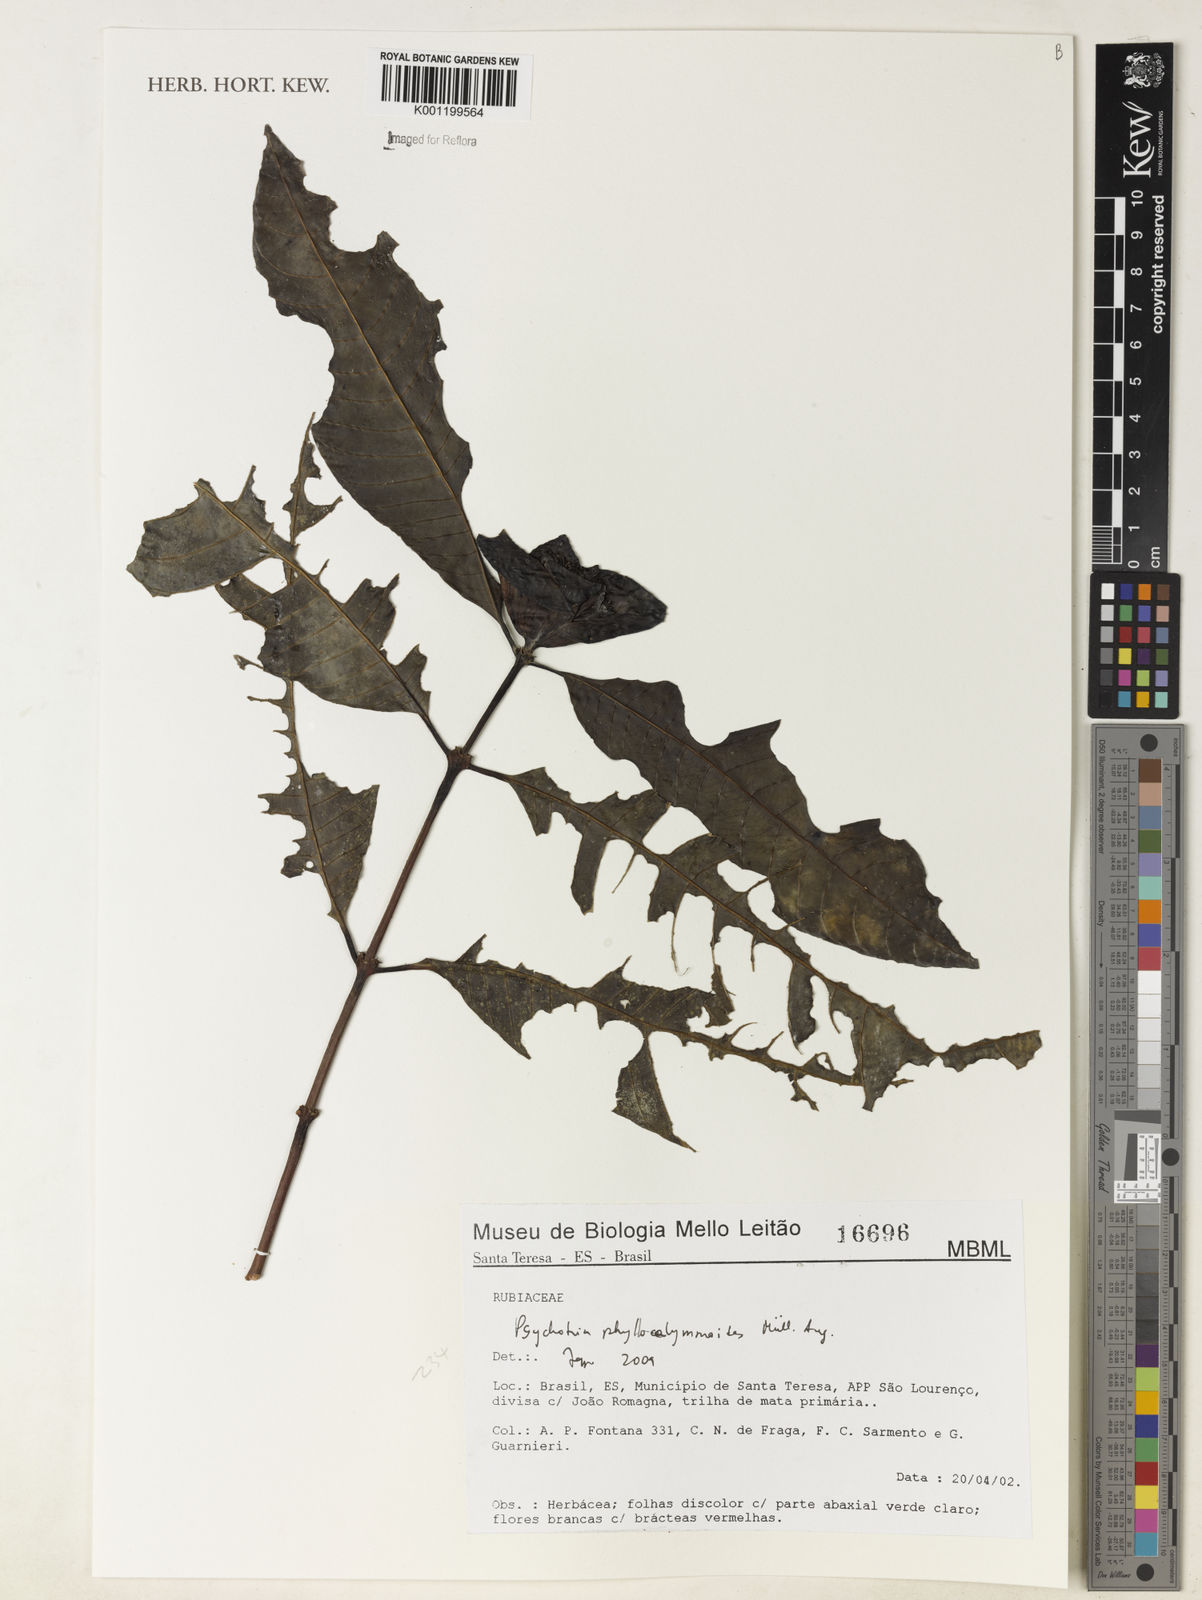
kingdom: Plantae
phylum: Tracheophyta
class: Magnoliopsida
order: Gentianales
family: Rubiaceae
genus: Psychotria
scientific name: Psychotria
